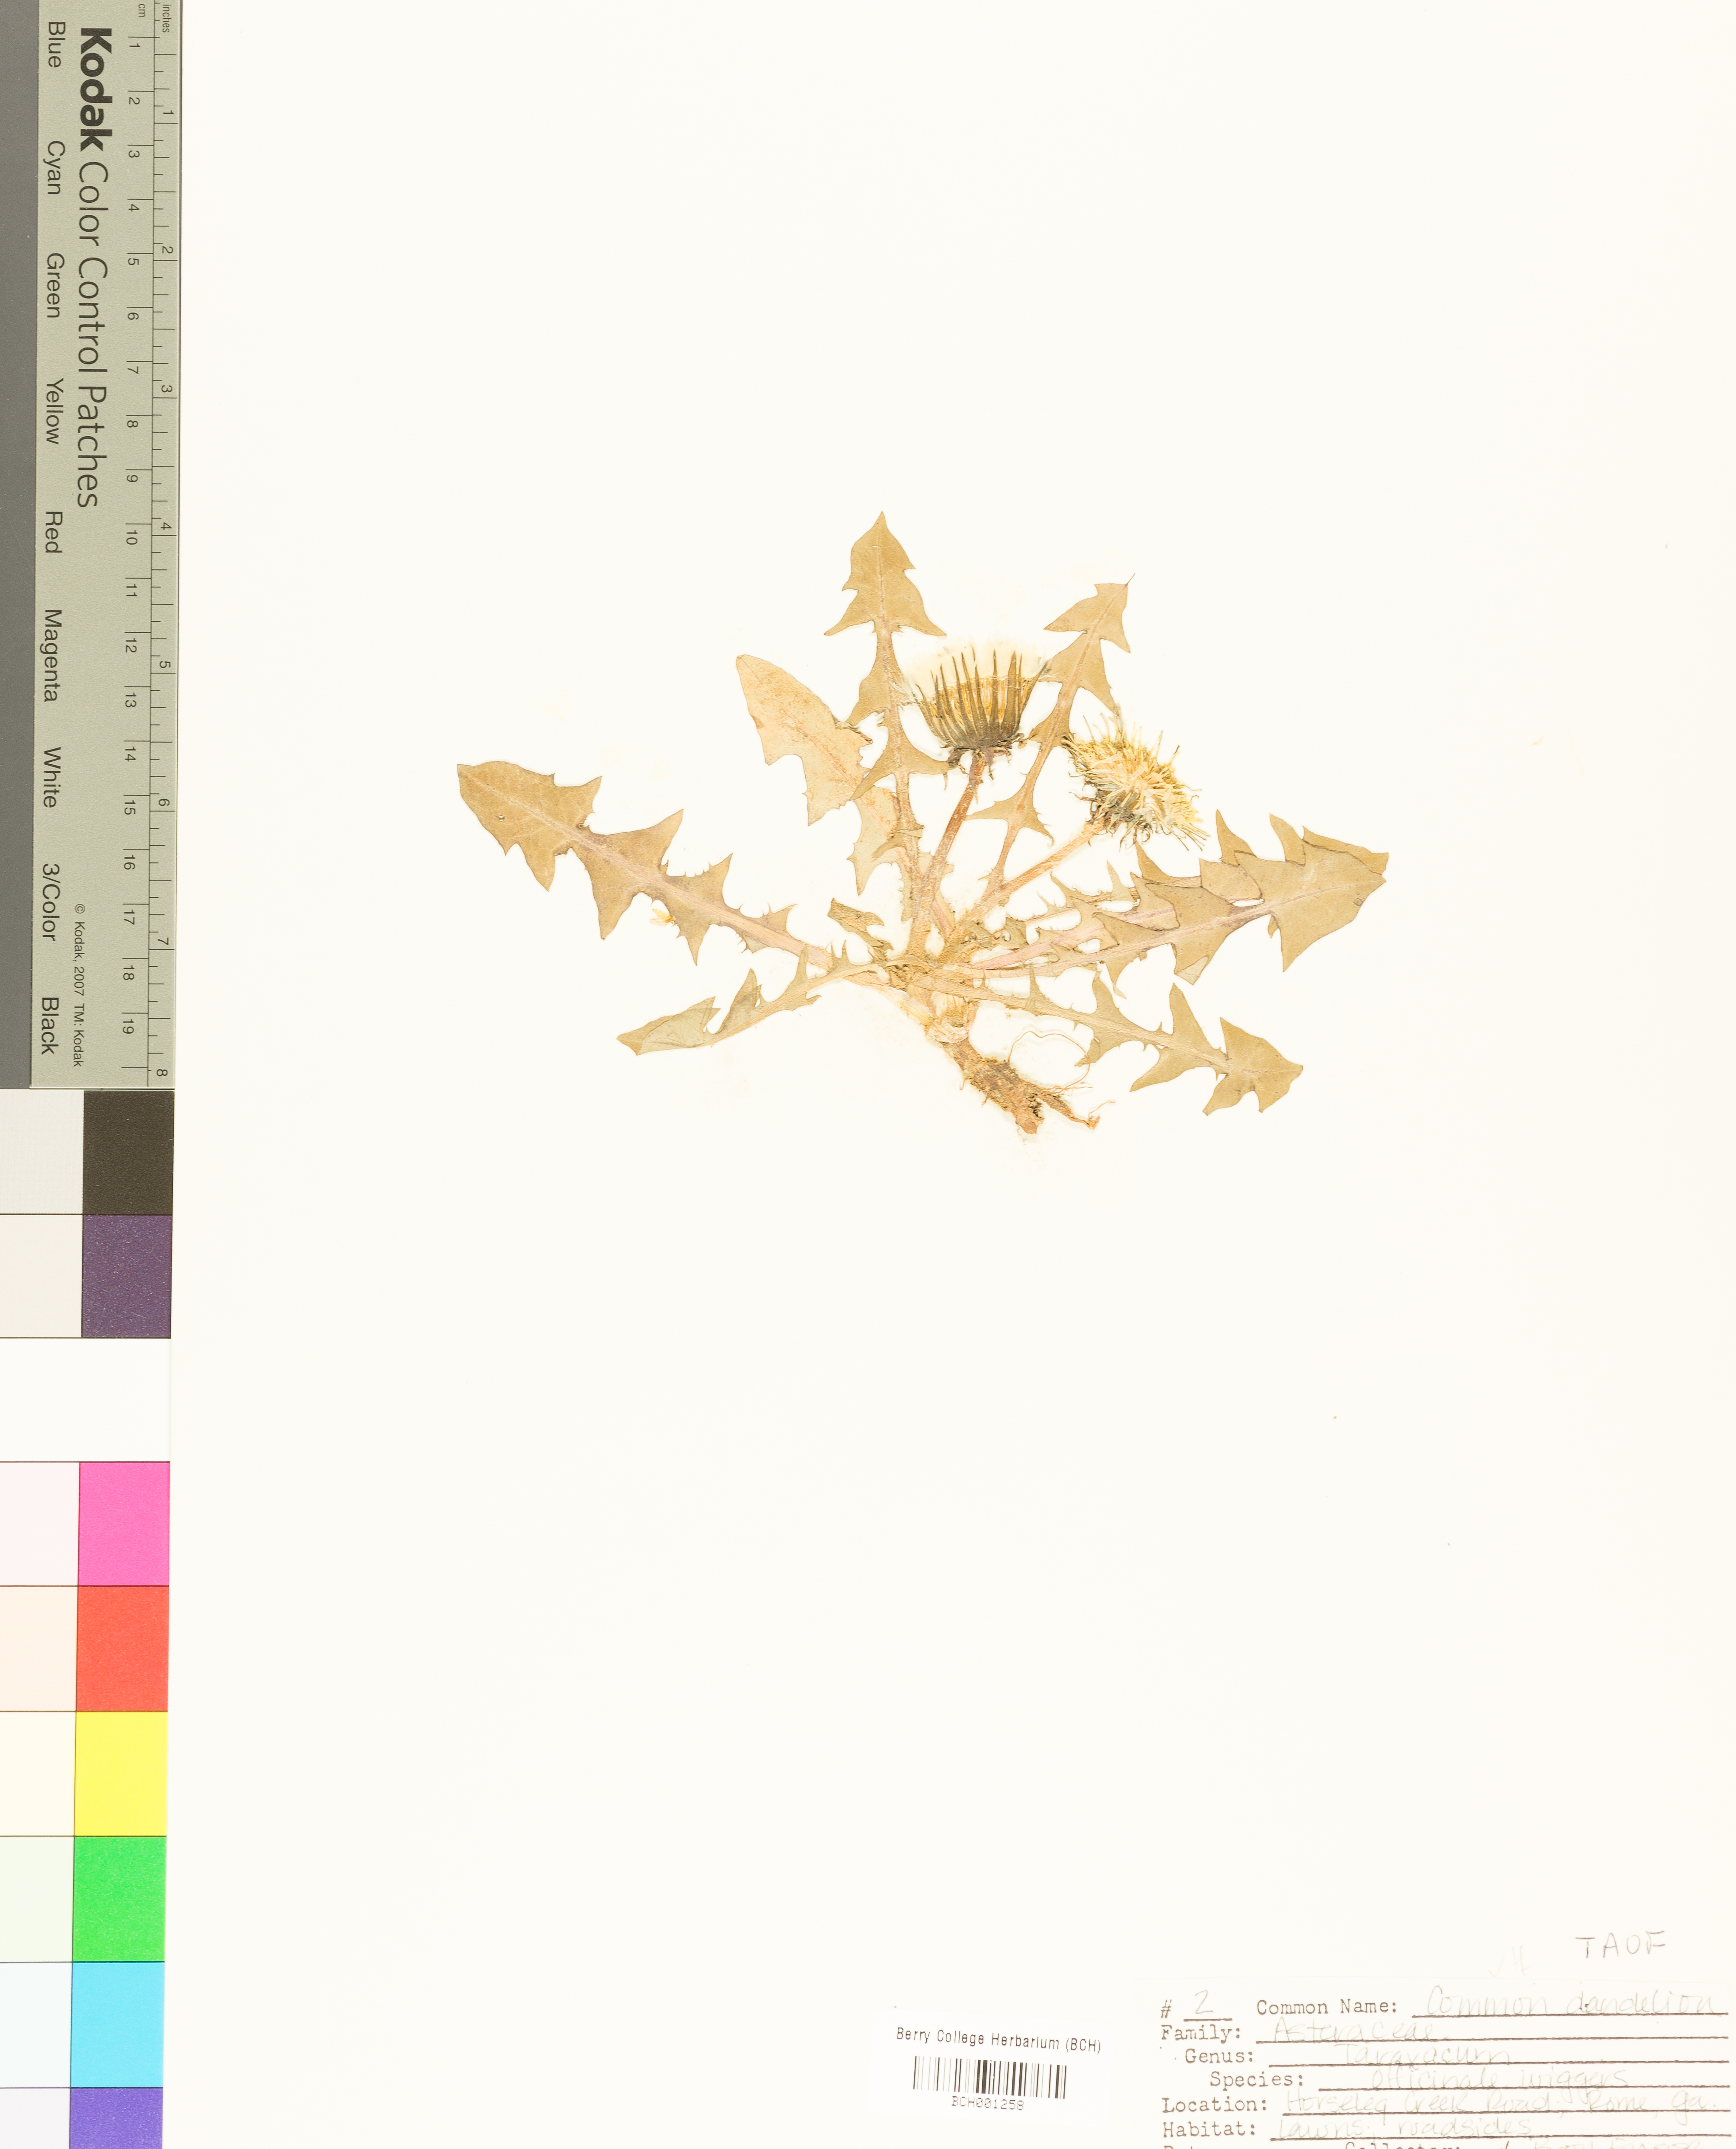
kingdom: Plantae
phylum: Tracheophyta
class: Magnoliopsida
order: Asterales
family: Asteraceae
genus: Taraxacum
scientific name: Taraxacum officinale
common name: Common dandelion
